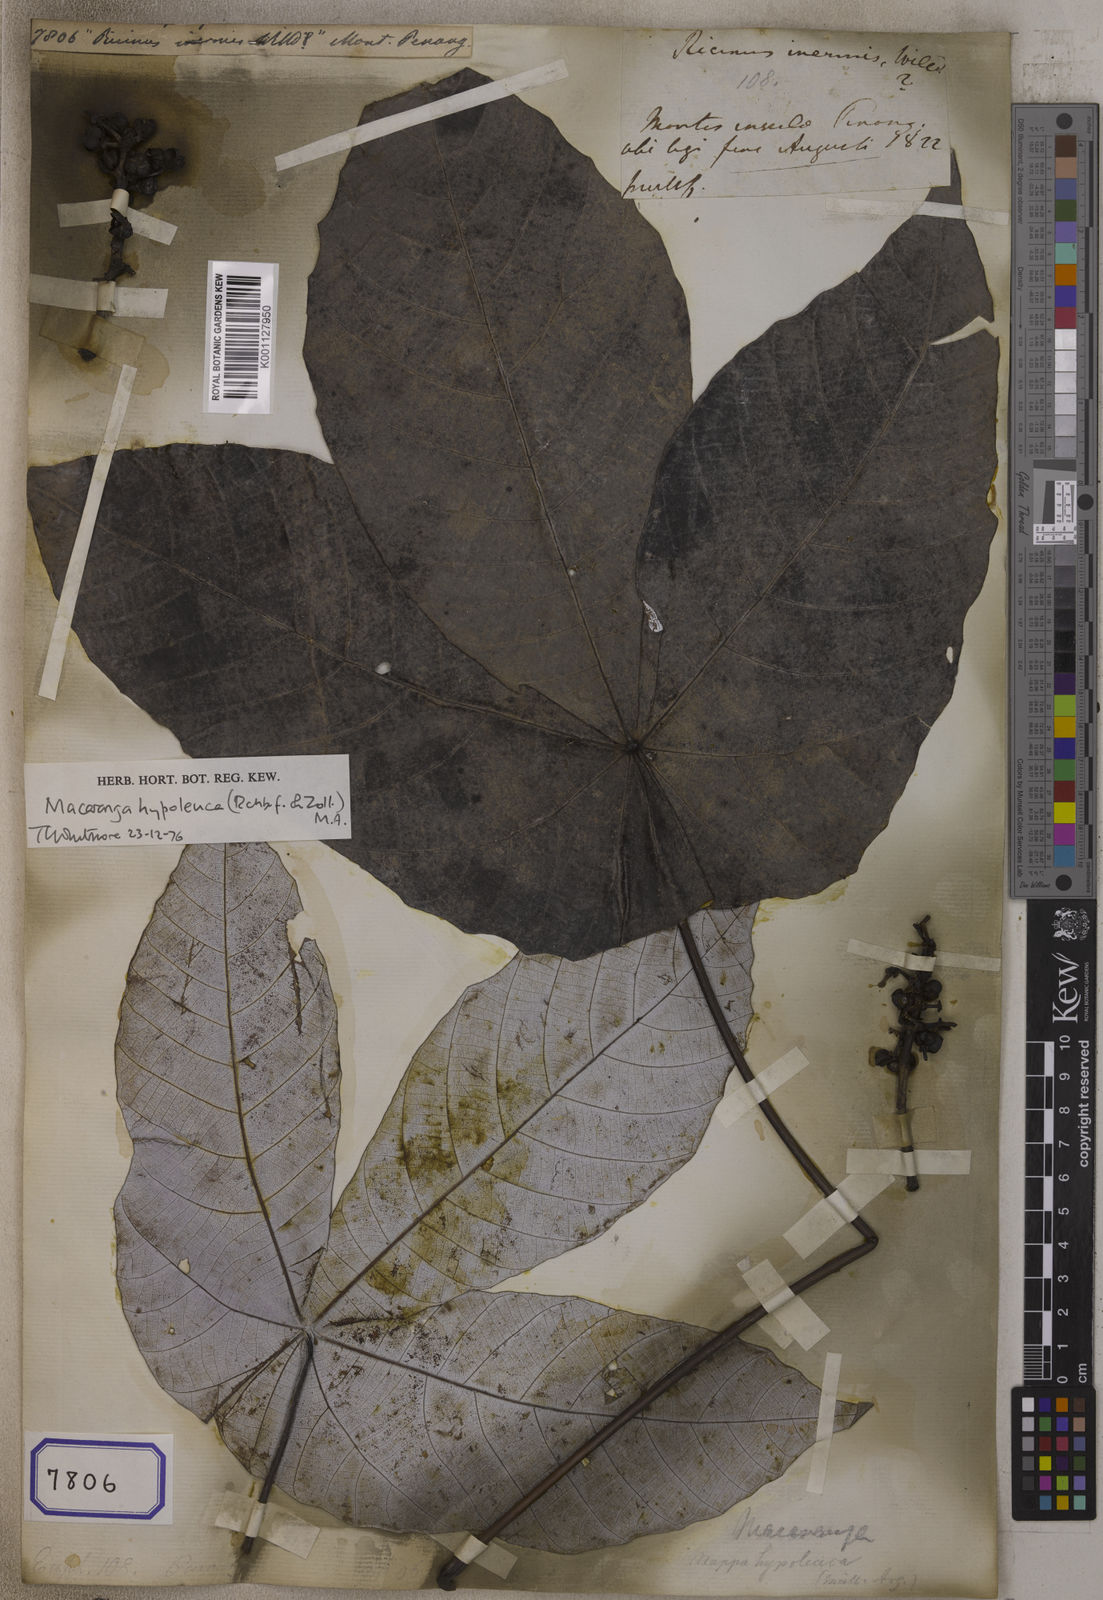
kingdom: Plantae
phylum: Tracheophyta
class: Magnoliopsida
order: Malpighiales
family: Euphorbiaceae
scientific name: Euphorbiaceae
